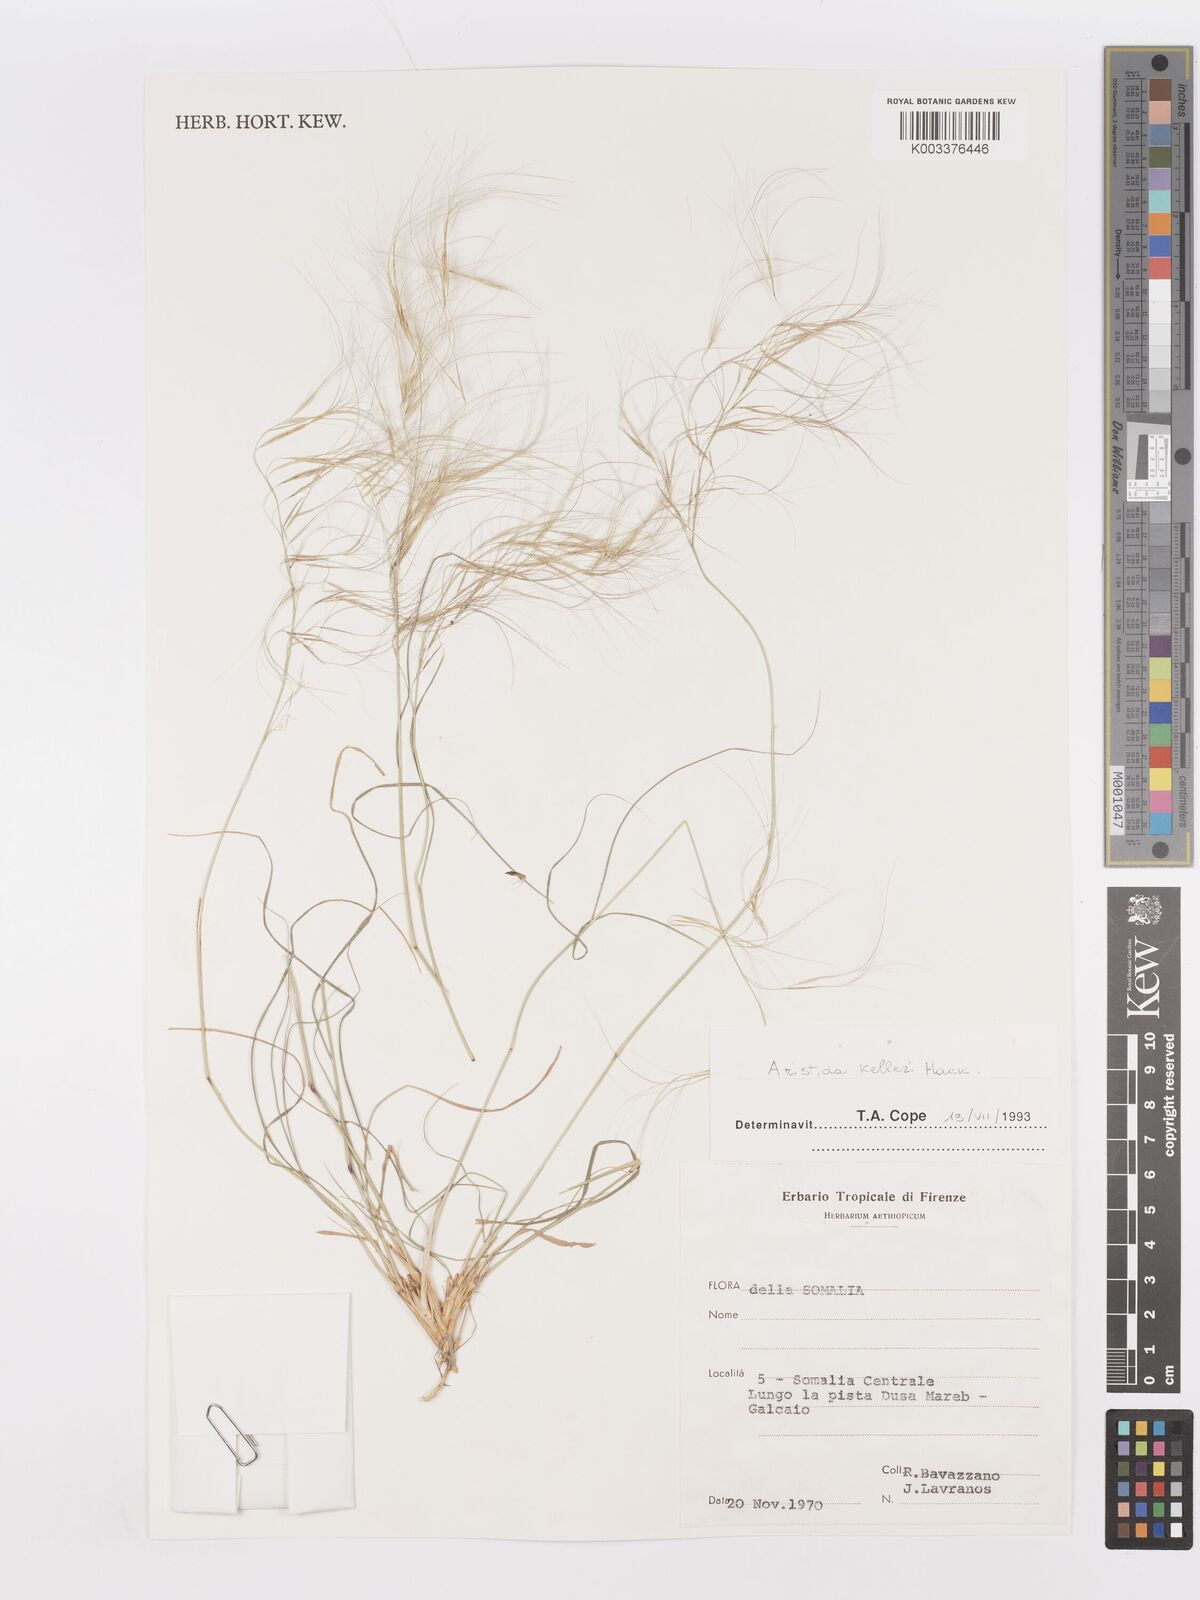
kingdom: Plantae
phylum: Tracheophyta
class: Liliopsida
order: Poales
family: Poaceae
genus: Aristida
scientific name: Aristida kelleri
